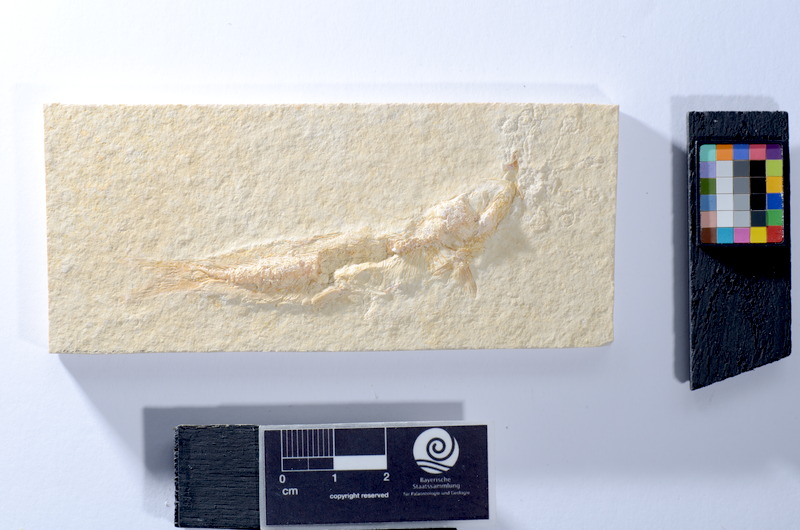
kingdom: Animalia
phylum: Chordata
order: Salmoniformes
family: Orthogonikleithridae
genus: Leptolepides
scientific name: Leptolepides
